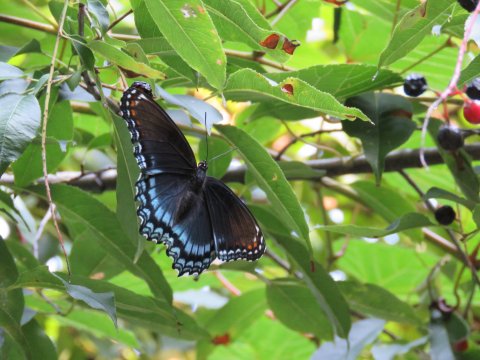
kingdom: Animalia
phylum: Arthropoda
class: Insecta
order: Lepidoptera
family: Nymphalidae
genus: Limenitis
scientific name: Limenitis arthemis
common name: Red-spotted Admiral
